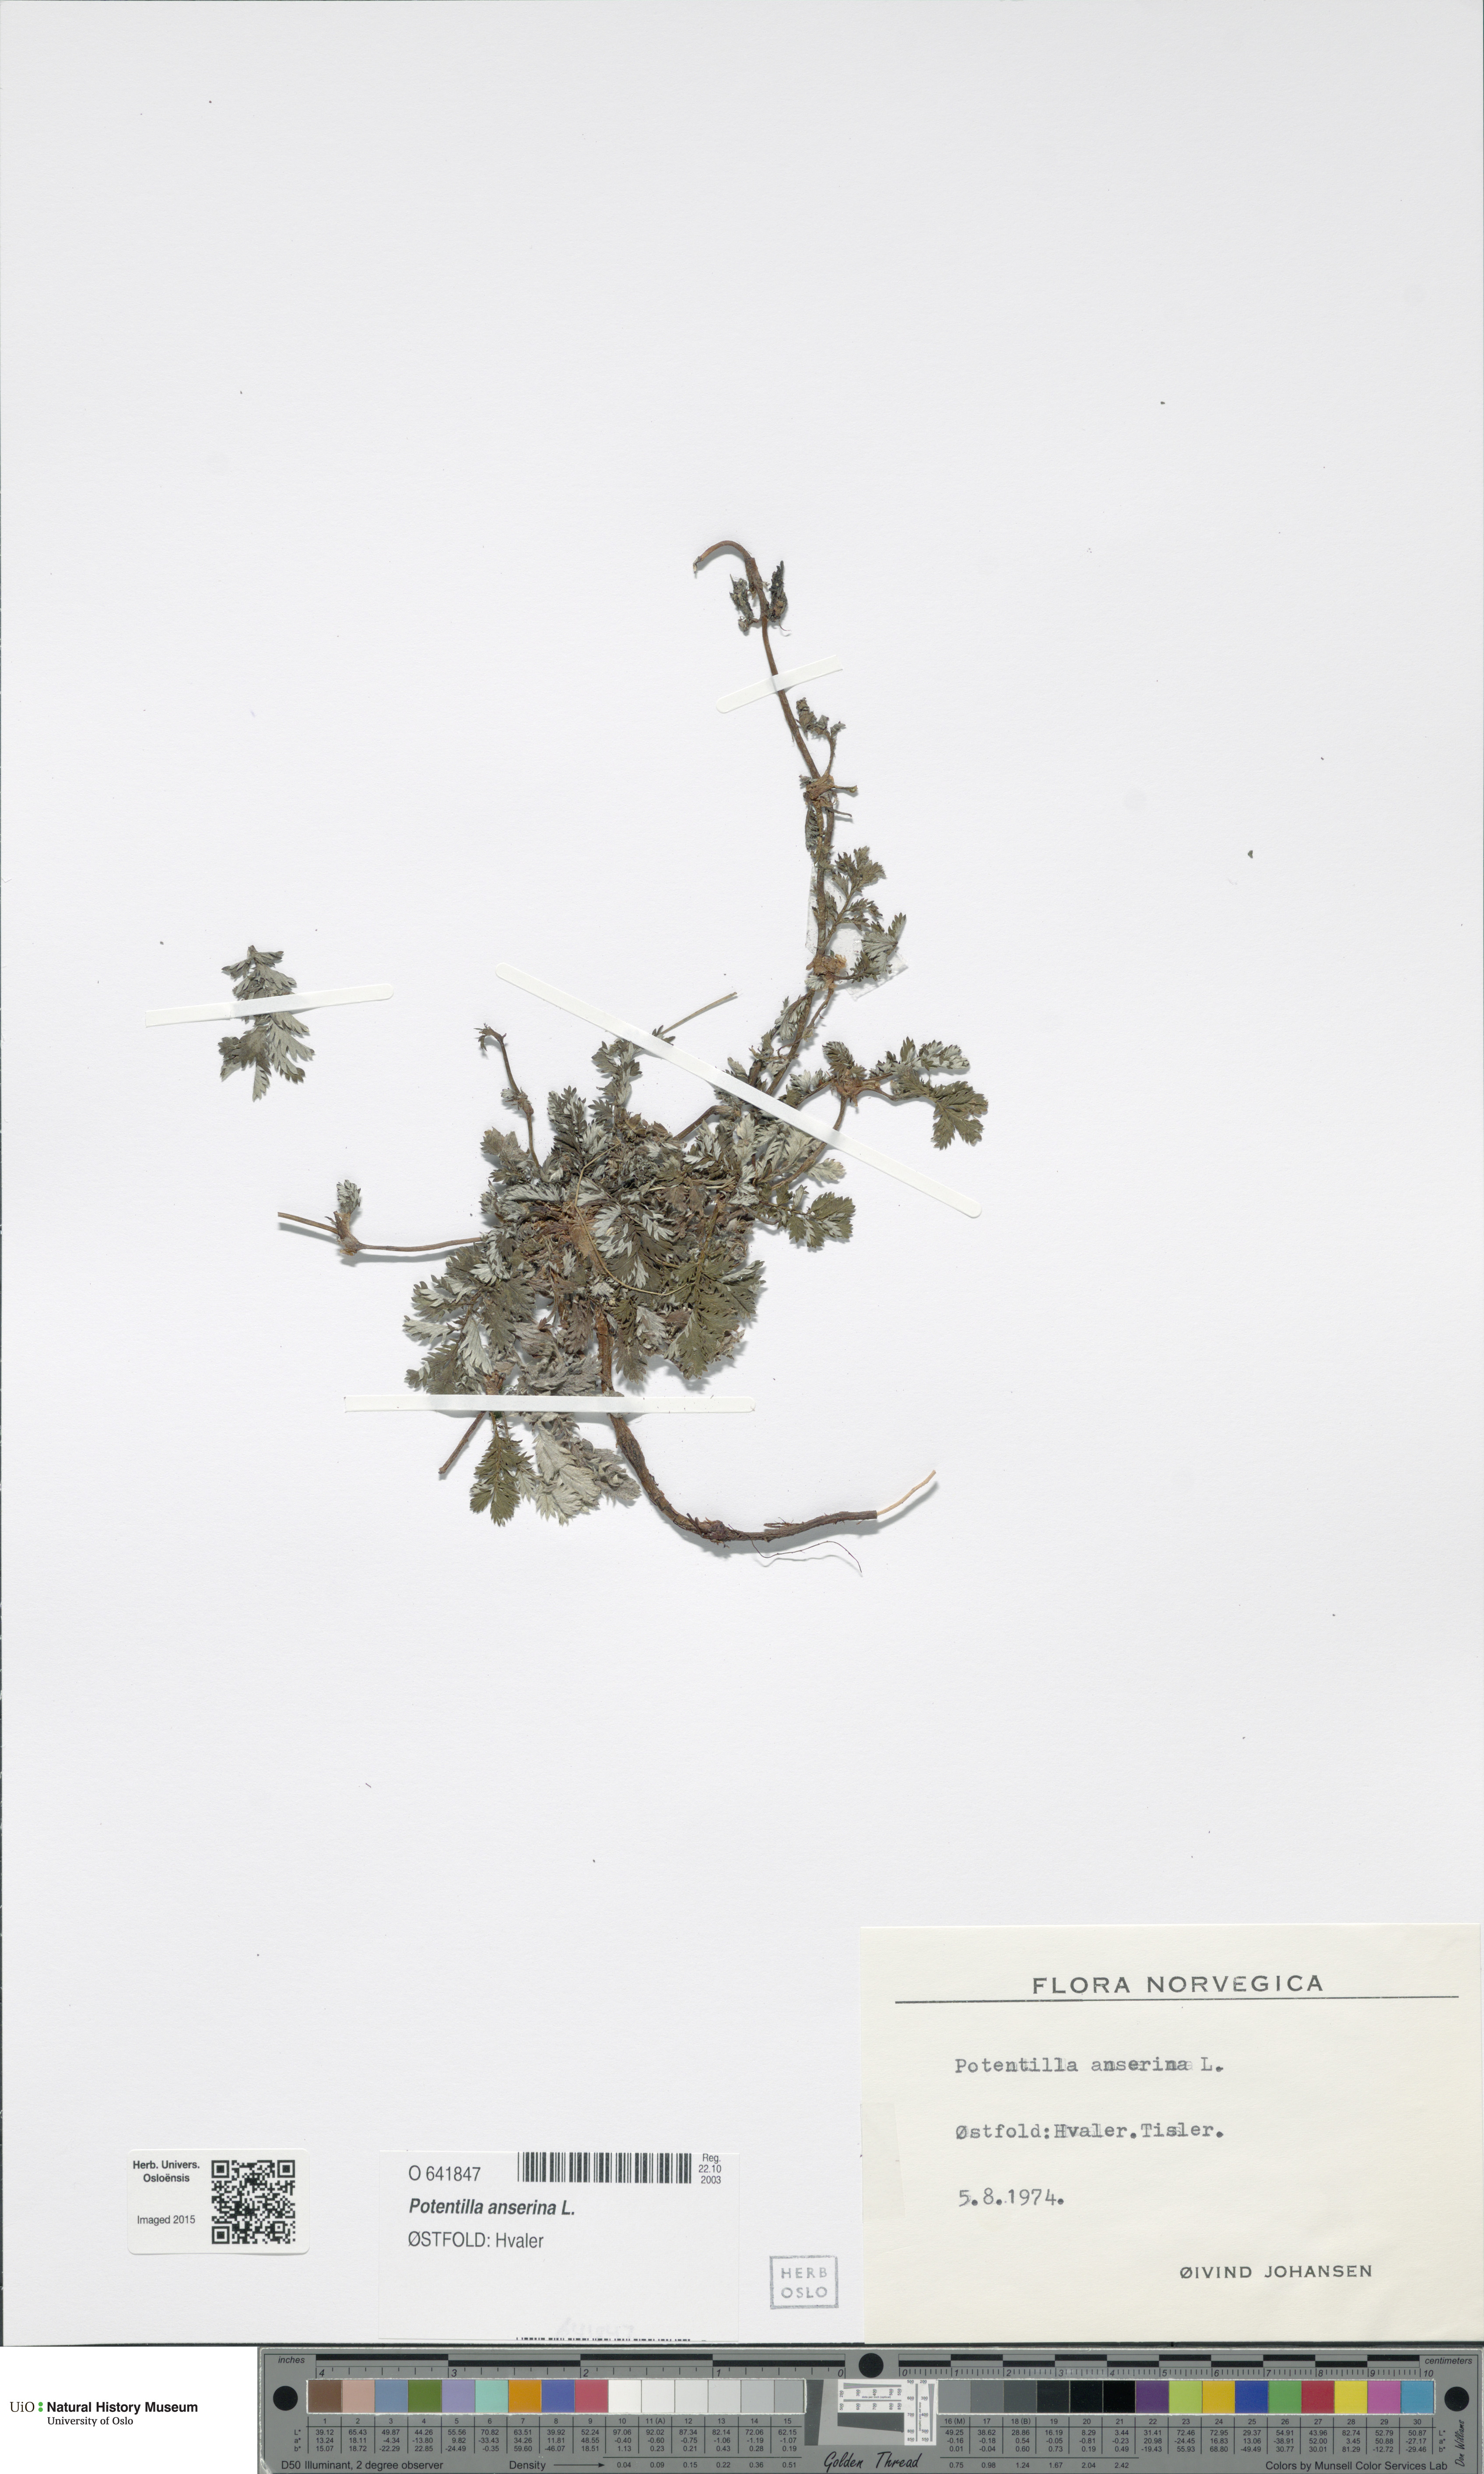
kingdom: Plantae
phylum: Tracheophyta
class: Magnoliopsida
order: Rosales
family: Rosaceae
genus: Argentina
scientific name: Argentina anserina
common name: Common silverweed
